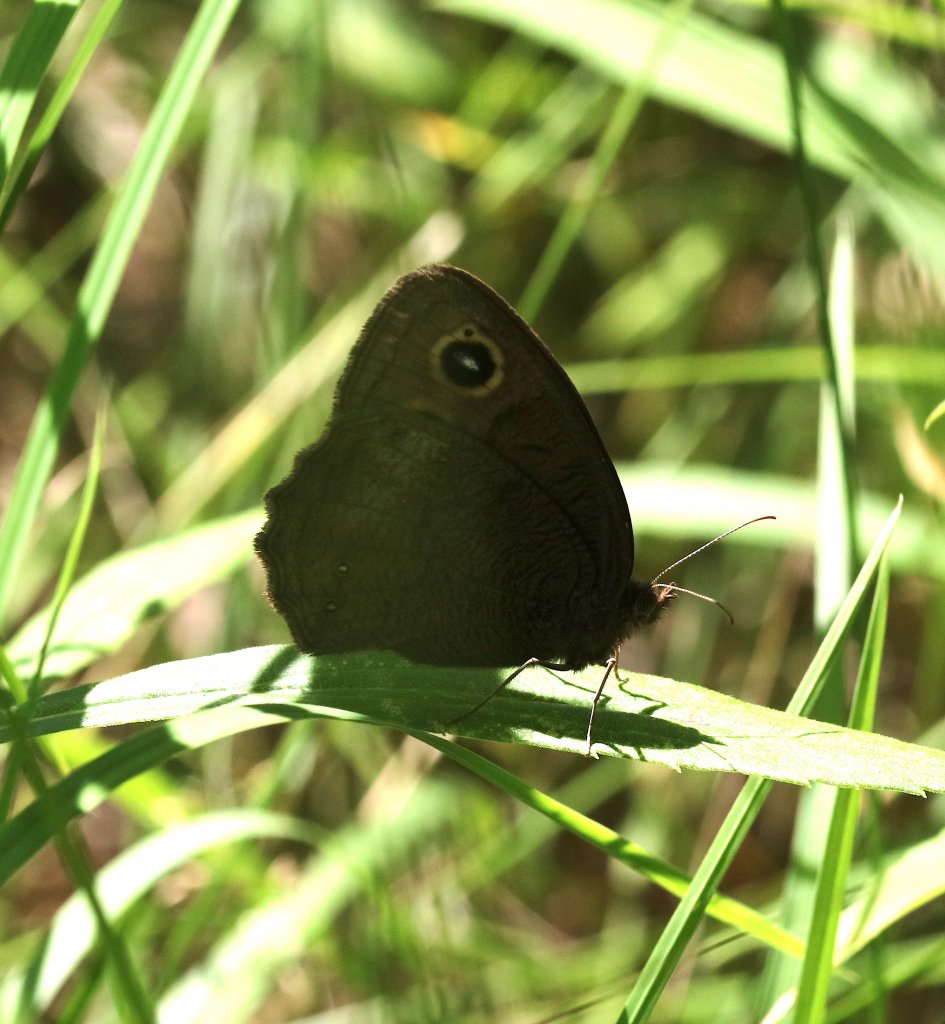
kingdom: Animalia
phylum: Arthropoda
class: Insecta
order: Lepidoptera
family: Nymphalidae
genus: Cercyonis
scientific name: Cercyonis
